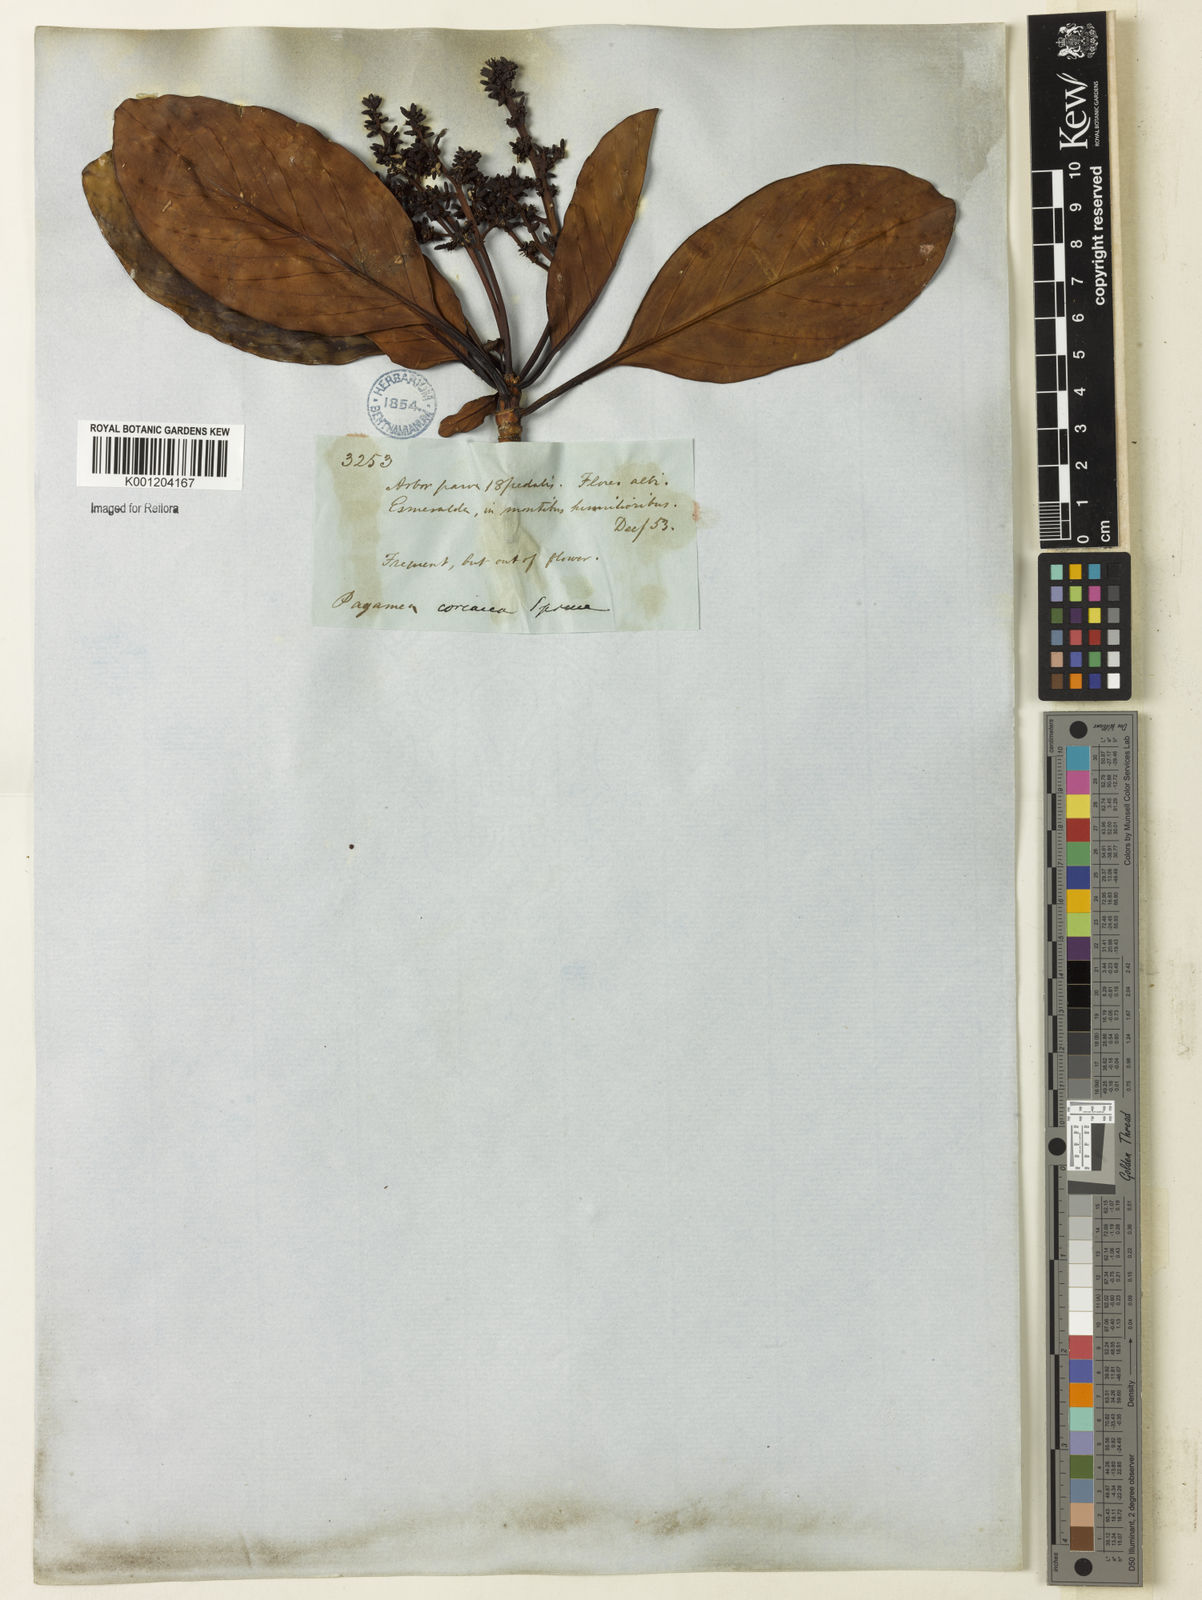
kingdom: Plantae
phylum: Tracheophyta
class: Magnoliopsida
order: Gentianales
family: Rubiaceae
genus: Pagamea
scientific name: Pagamea coriacea
